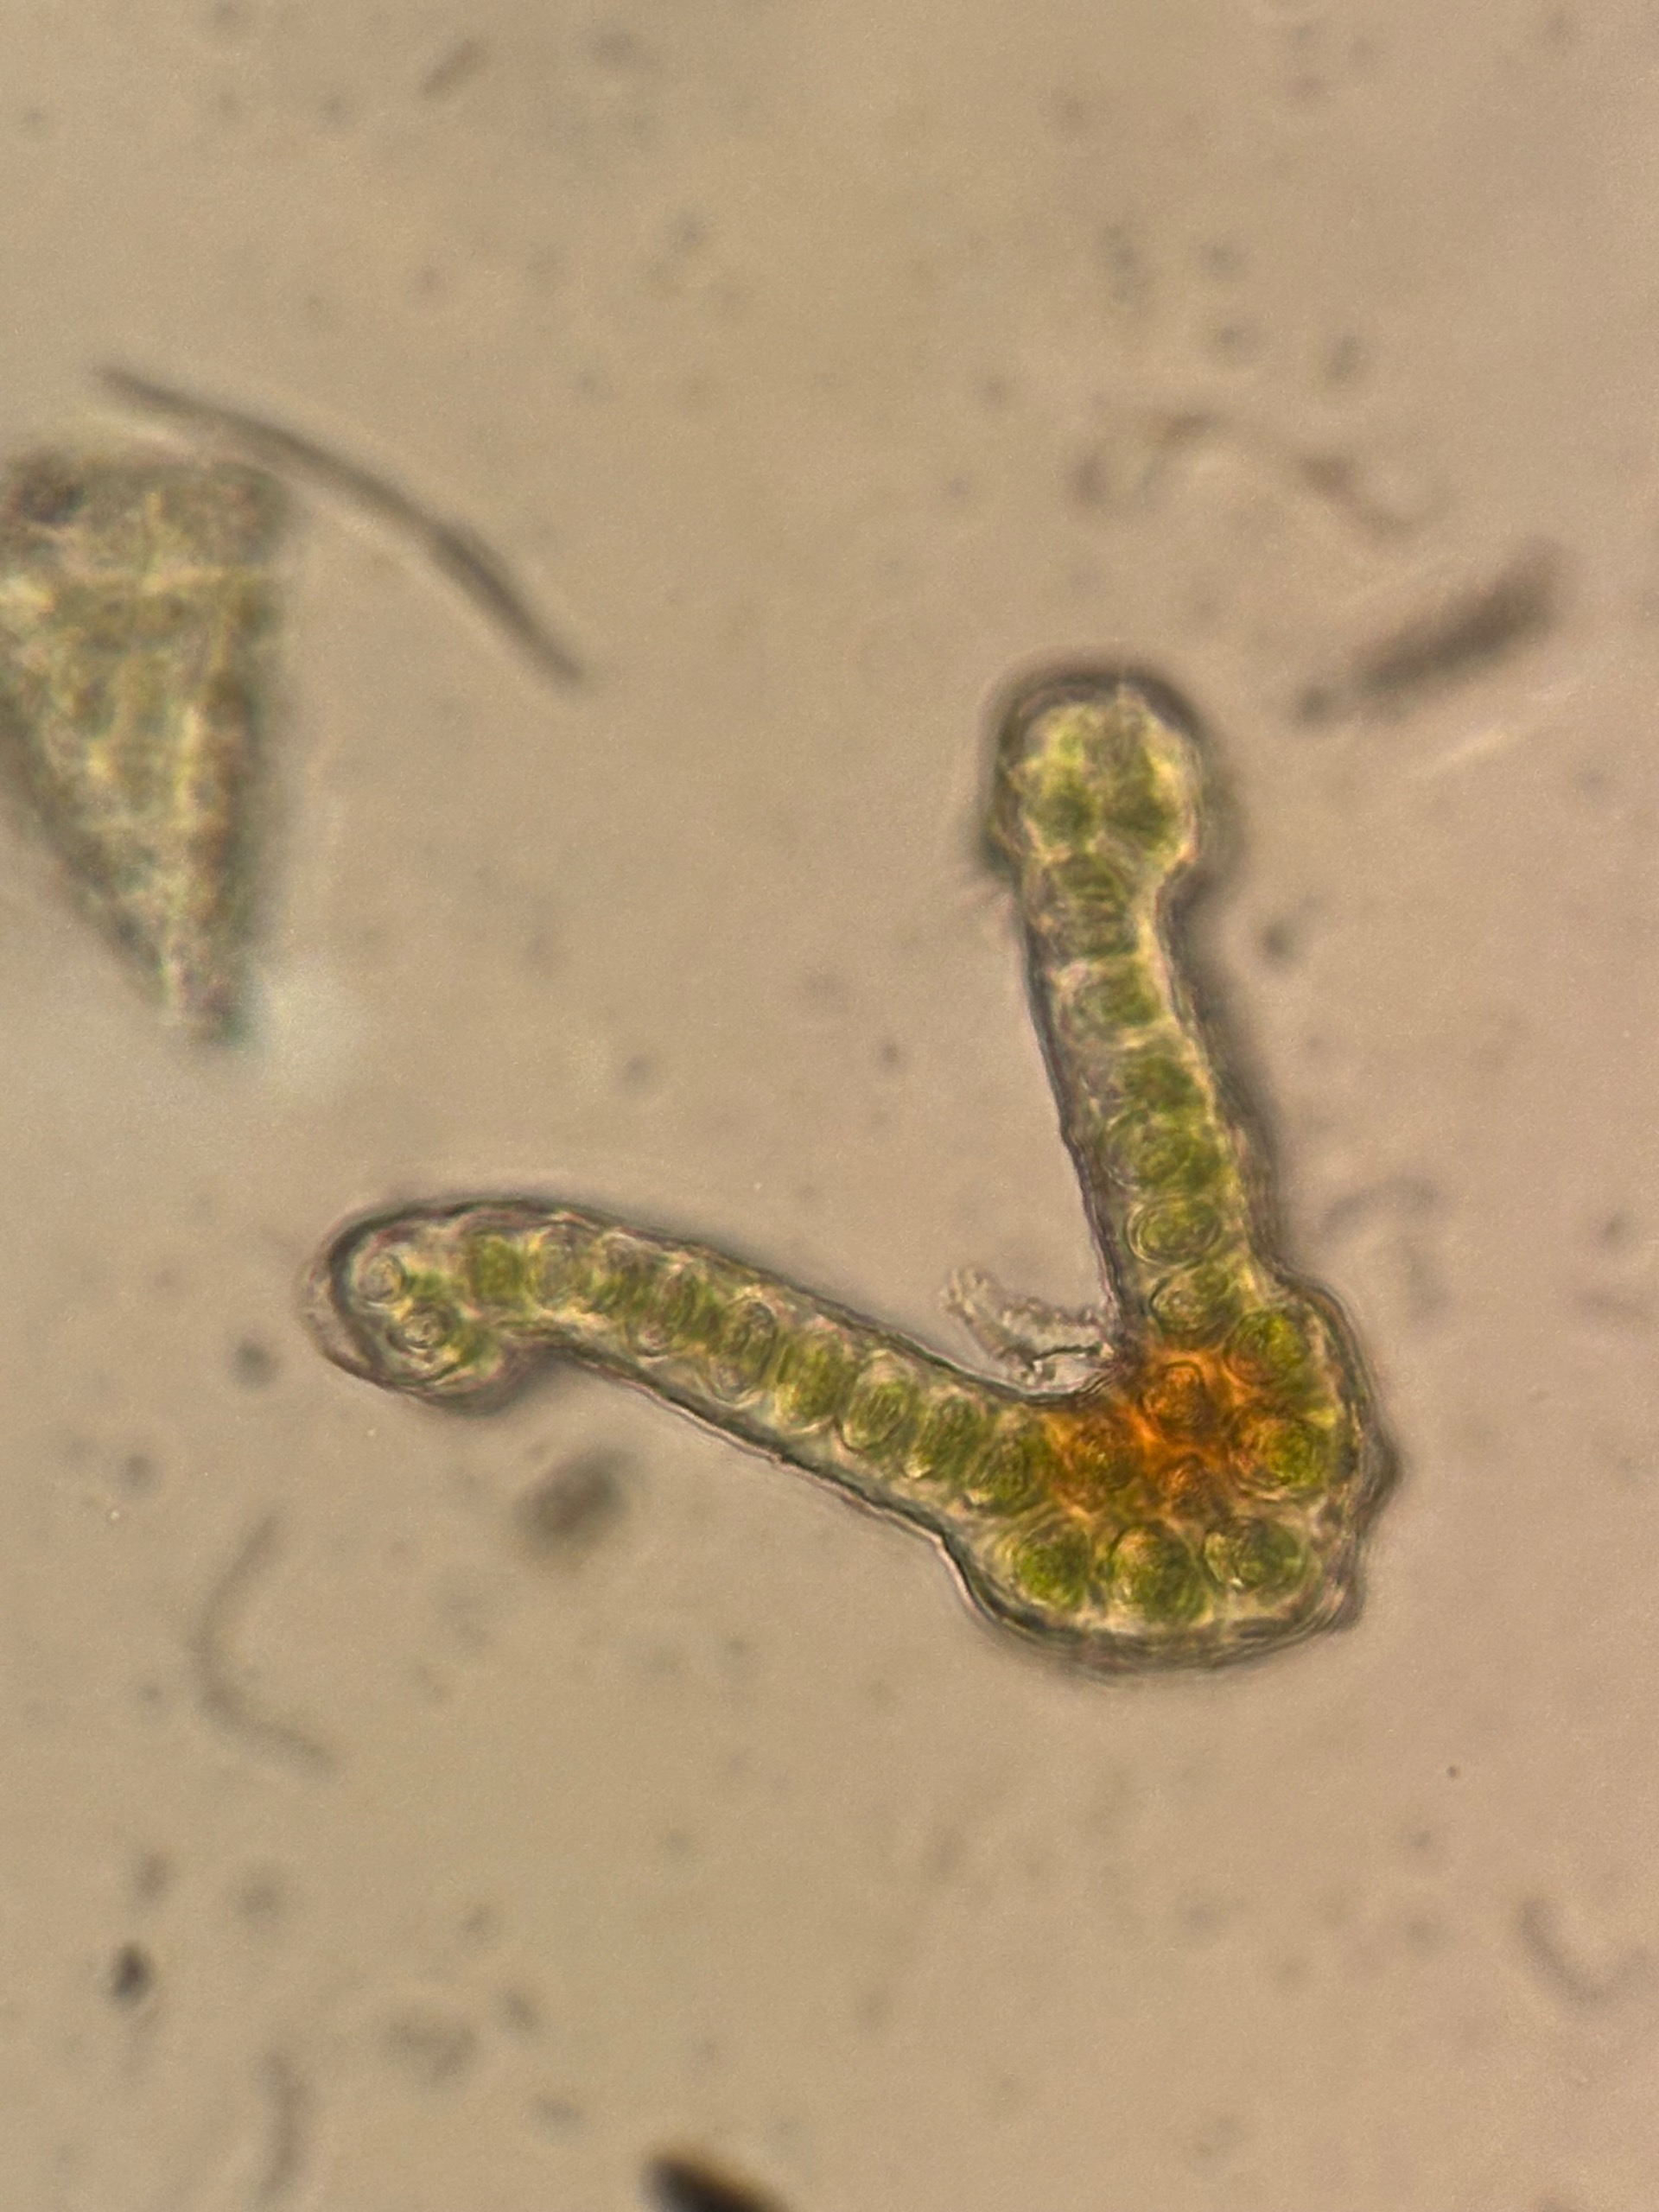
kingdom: Plantae
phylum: Bryophyta
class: Bryopsida
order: Grimmiales
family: Grimmiaceae
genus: Schistidium
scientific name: Schistidium apocarpum
